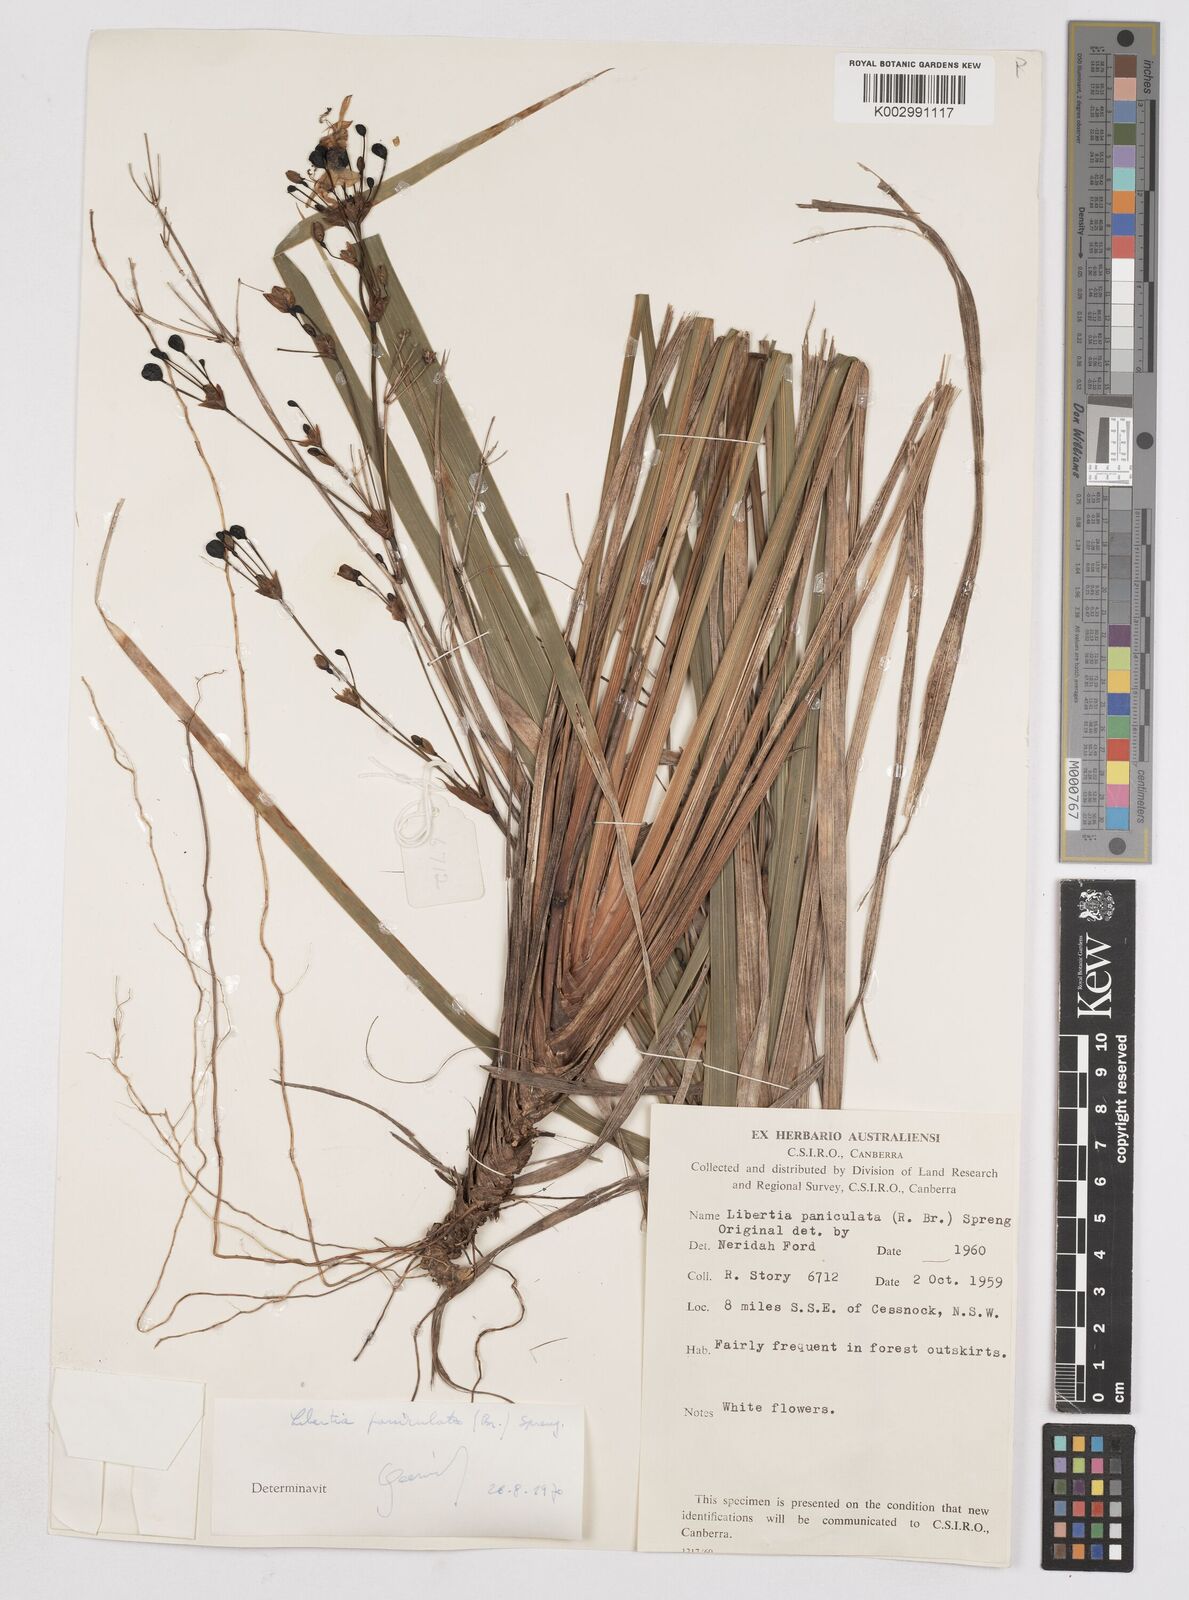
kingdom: Plantae
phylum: Tracheophyta
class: Liliopsida
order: Asparagales
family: Iridaceae
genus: Libertia
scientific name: Libertia paniculata
